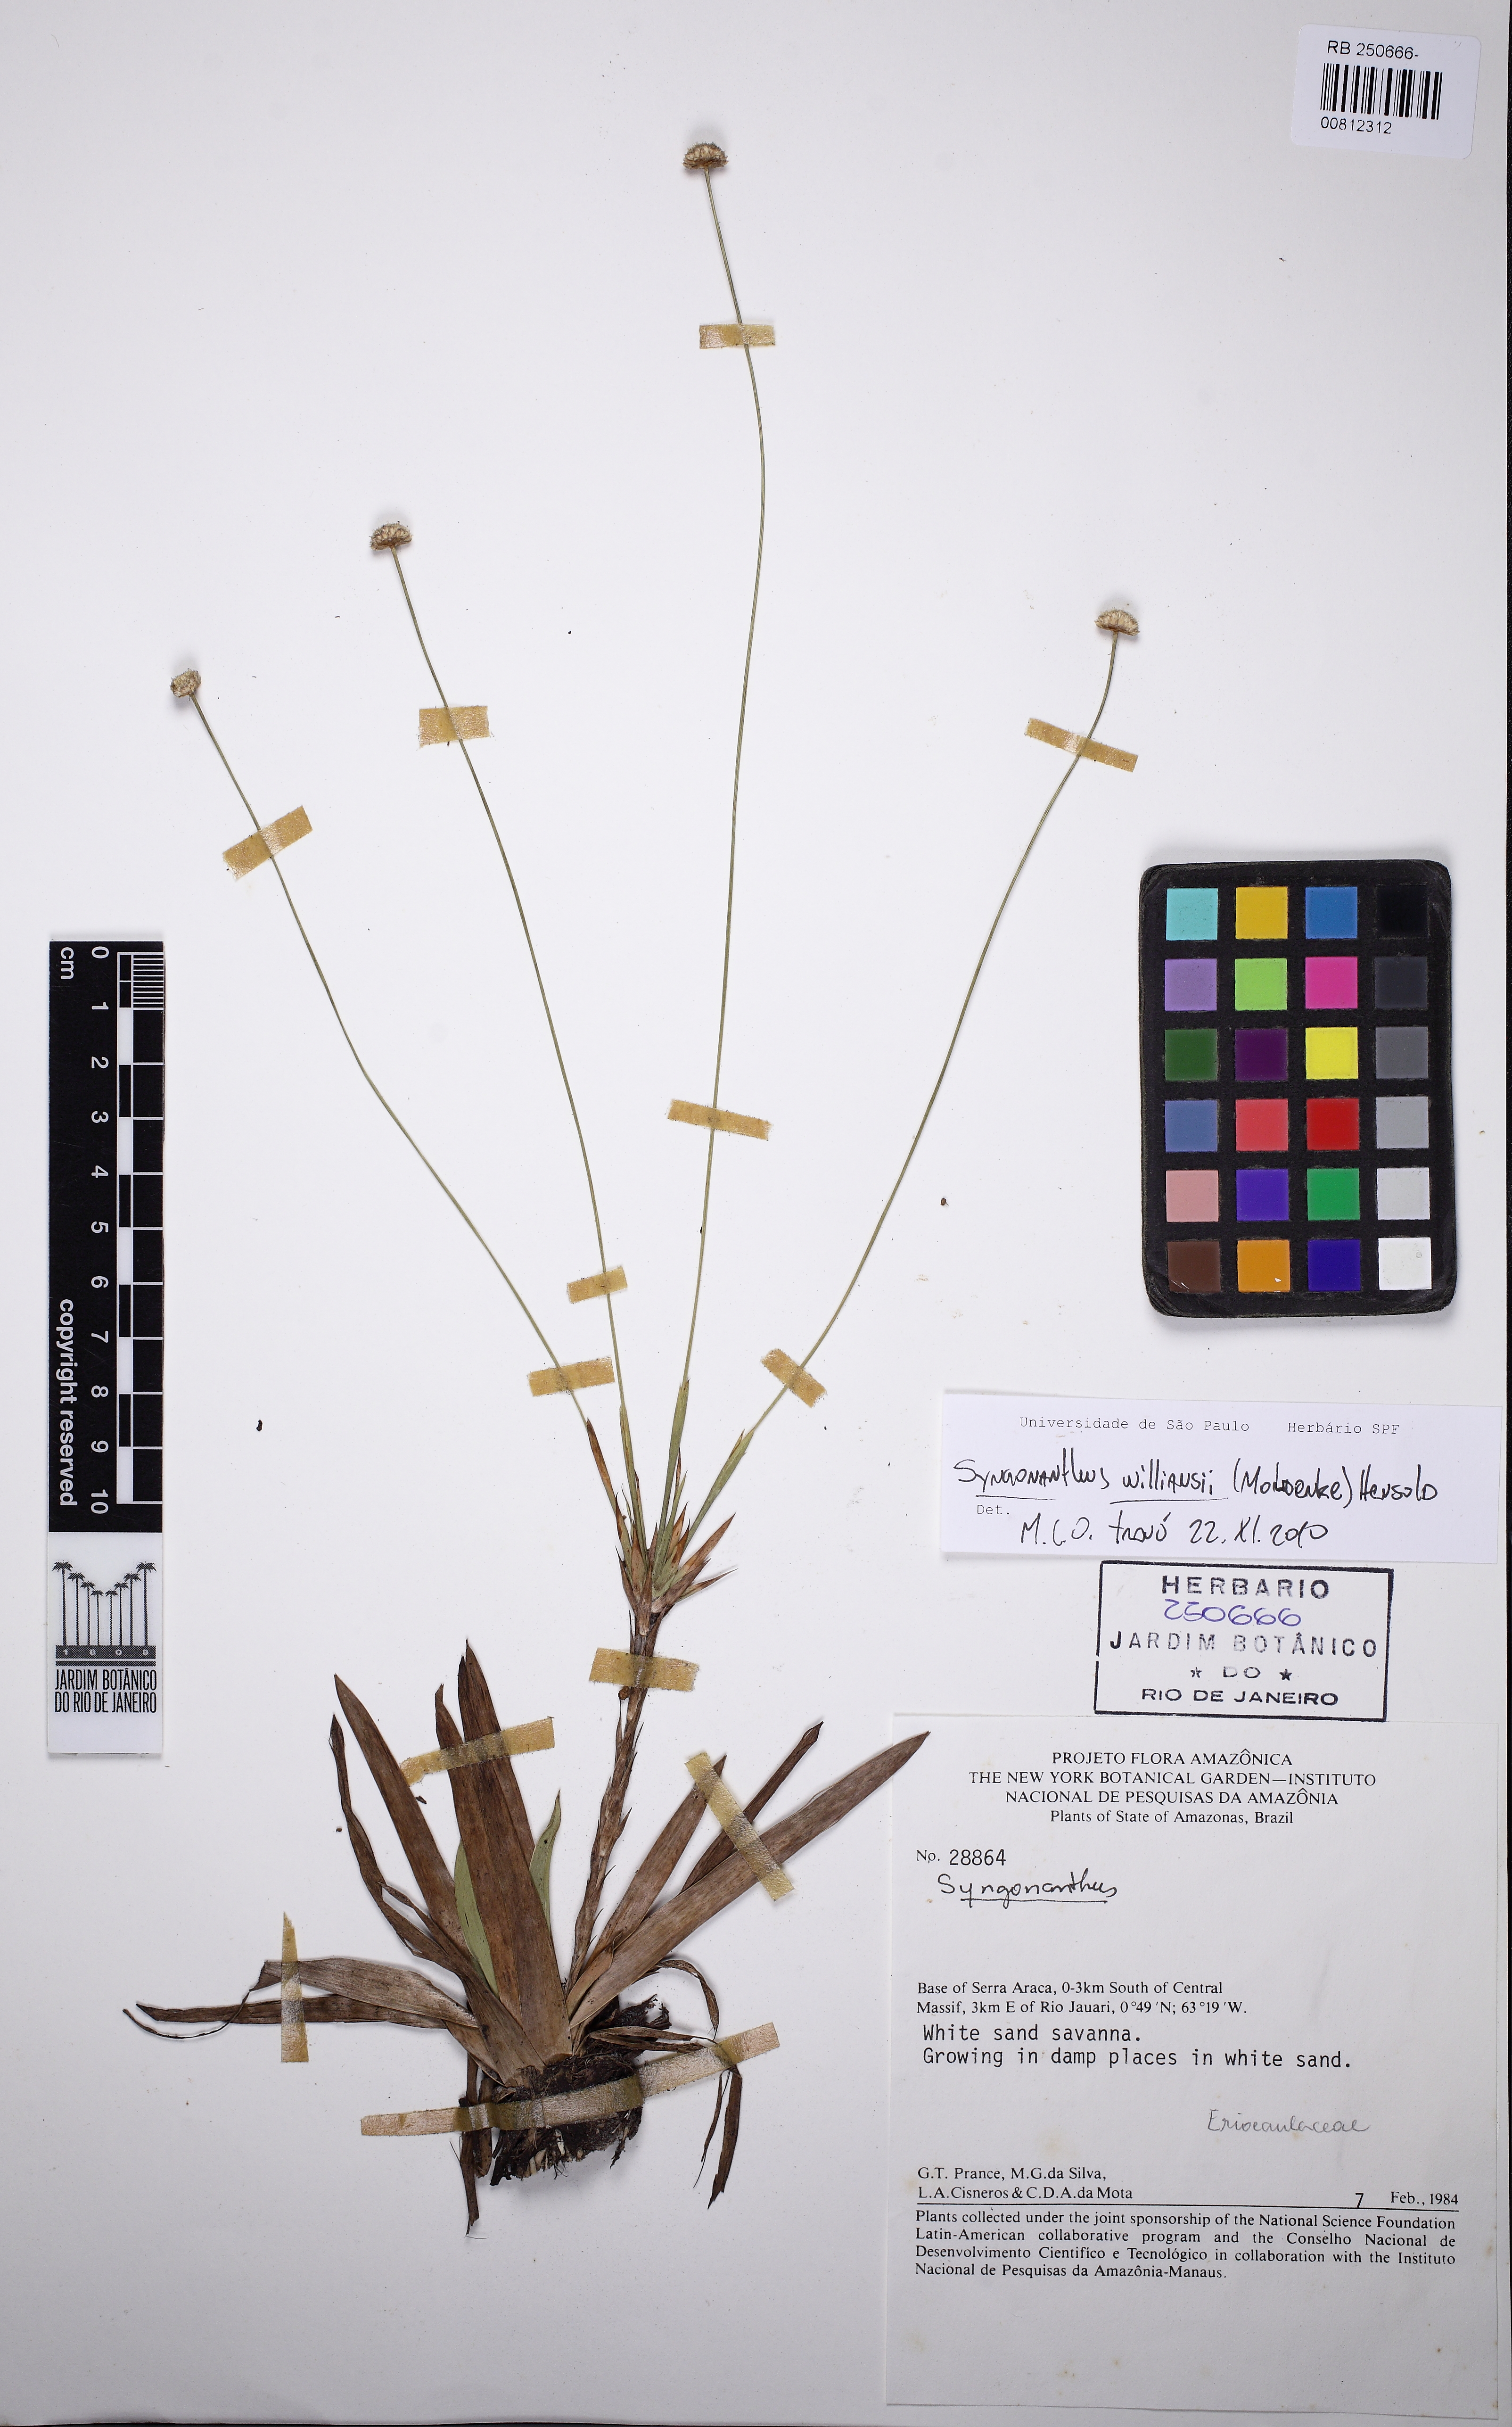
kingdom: Plantae
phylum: Tracheophyta
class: Liliopsida
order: Poales
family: Eriocaulaceae
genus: Syngonanthus
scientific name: Syngonanthus williamsii
